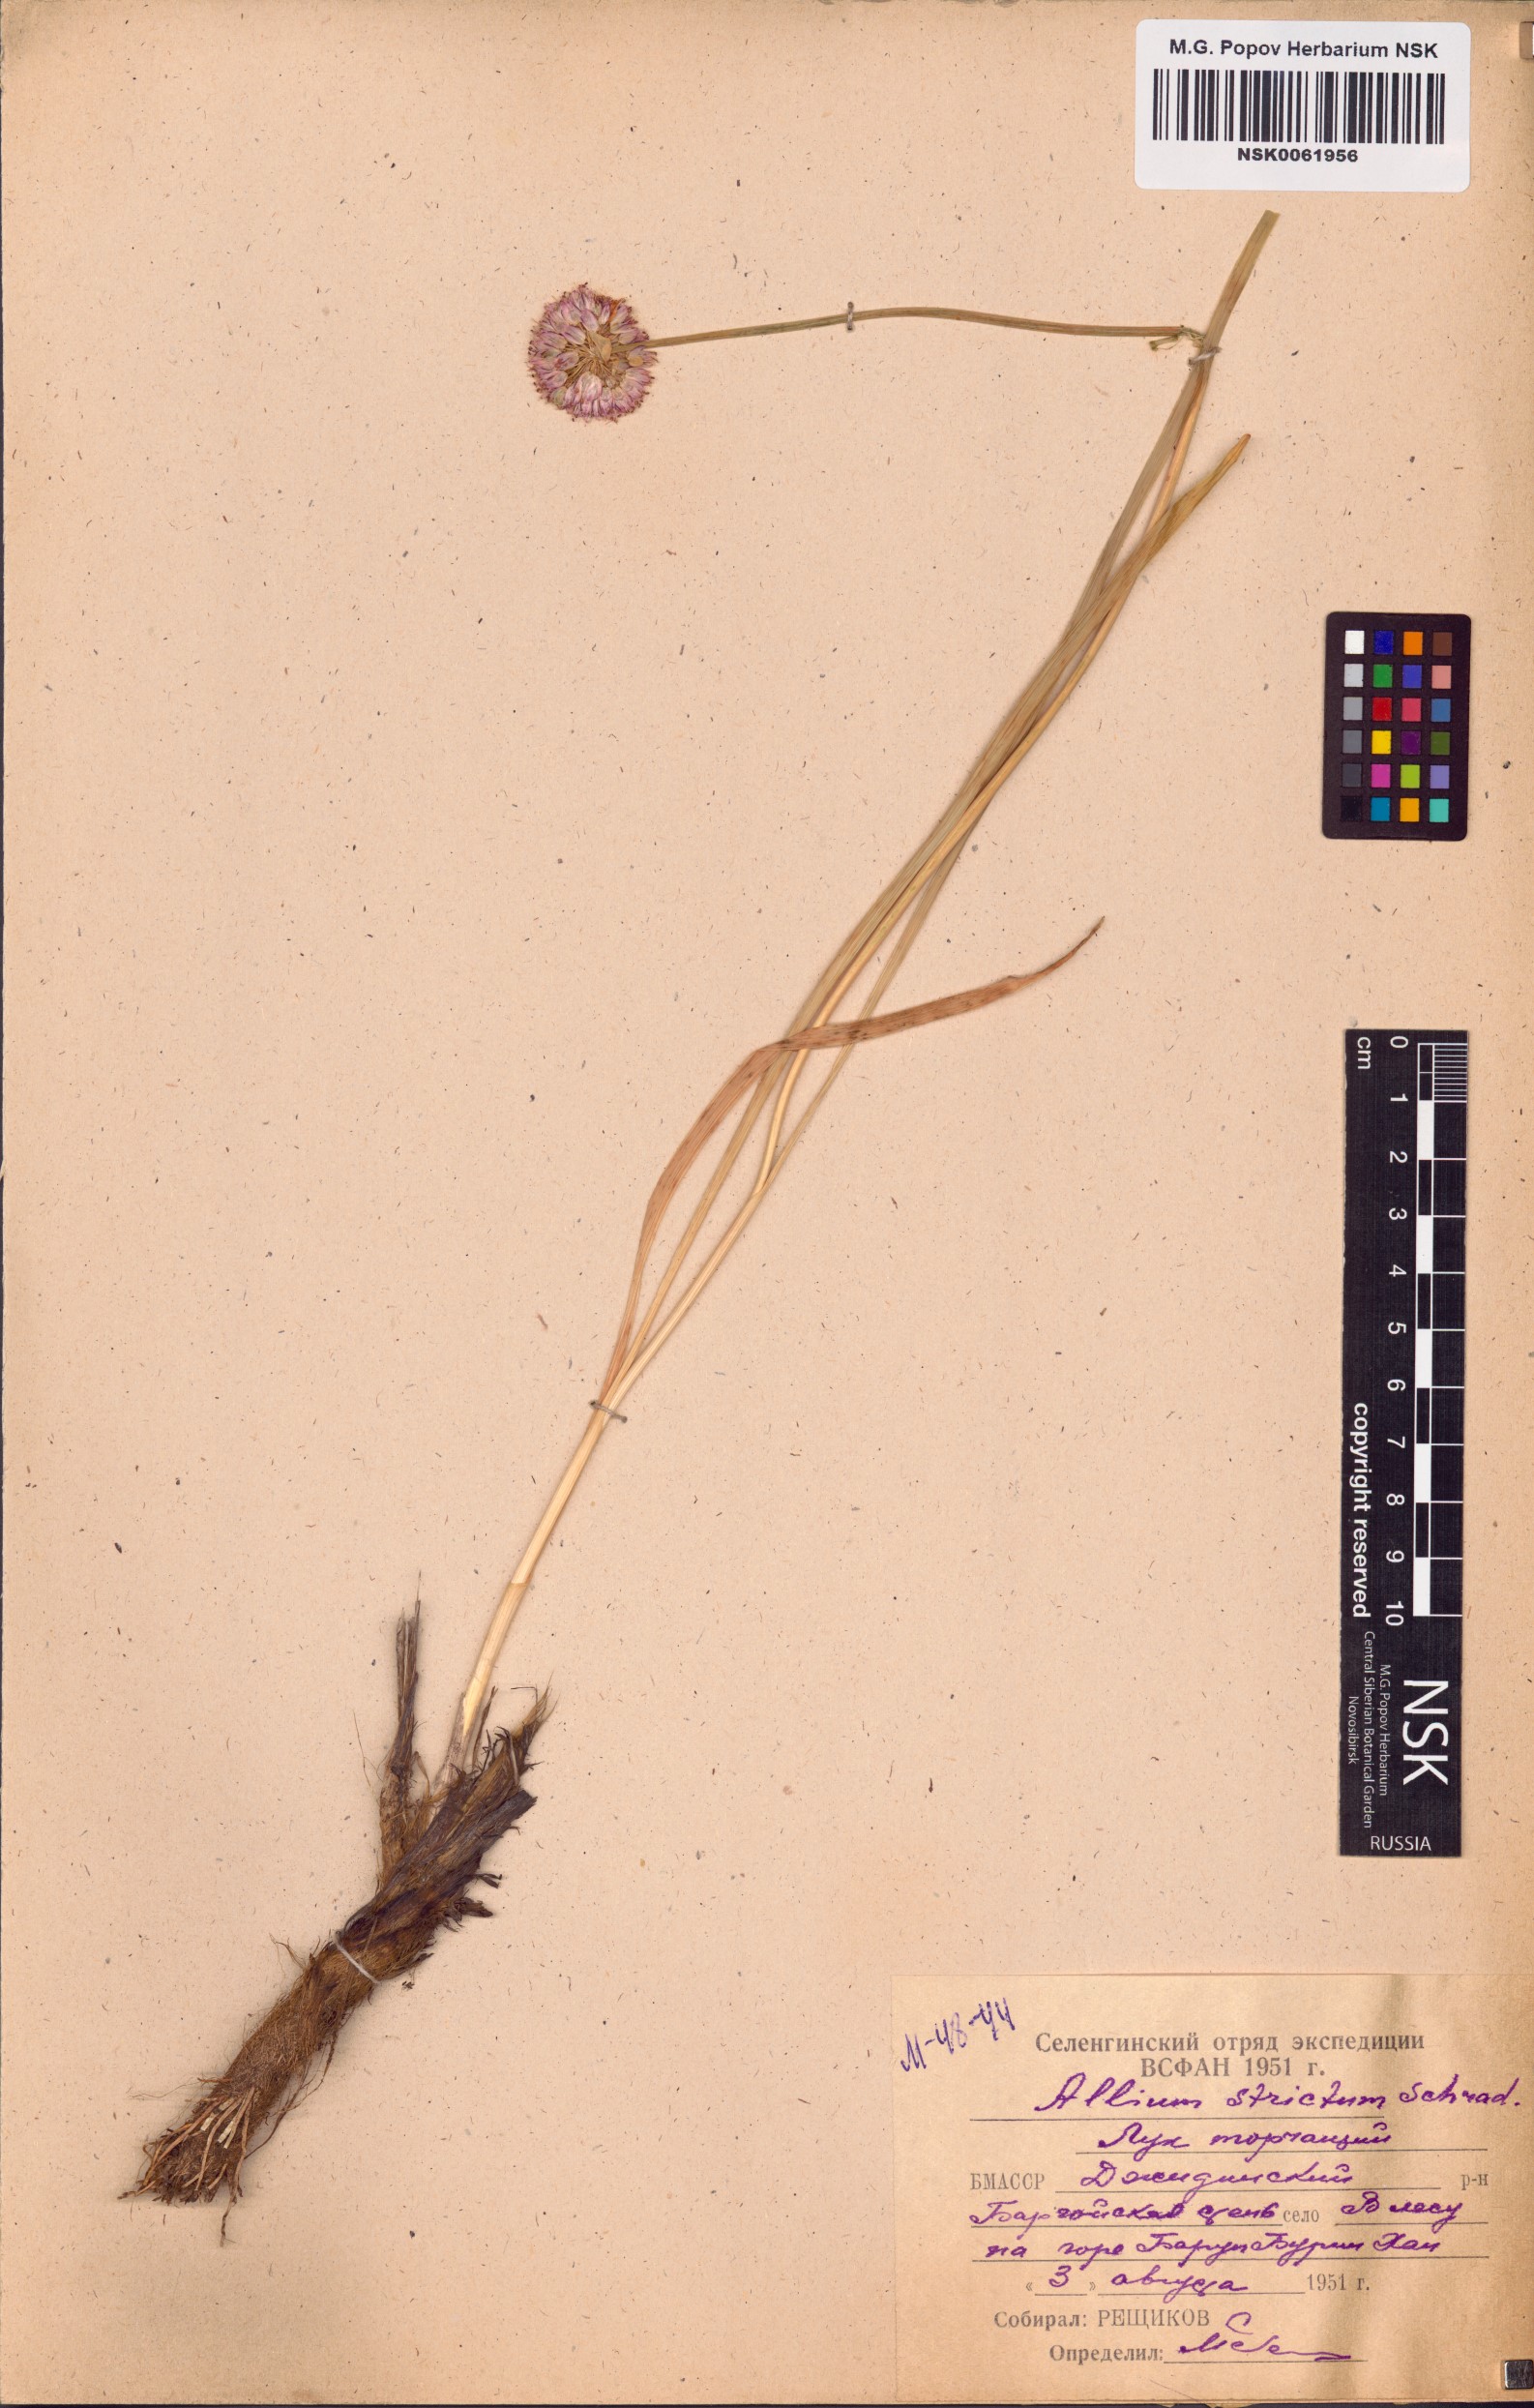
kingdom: Plantae
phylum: Tracheophyta
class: Liliopsida
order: Asparagales
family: Amaryllidaceae
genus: Allium
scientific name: Allium strictum
